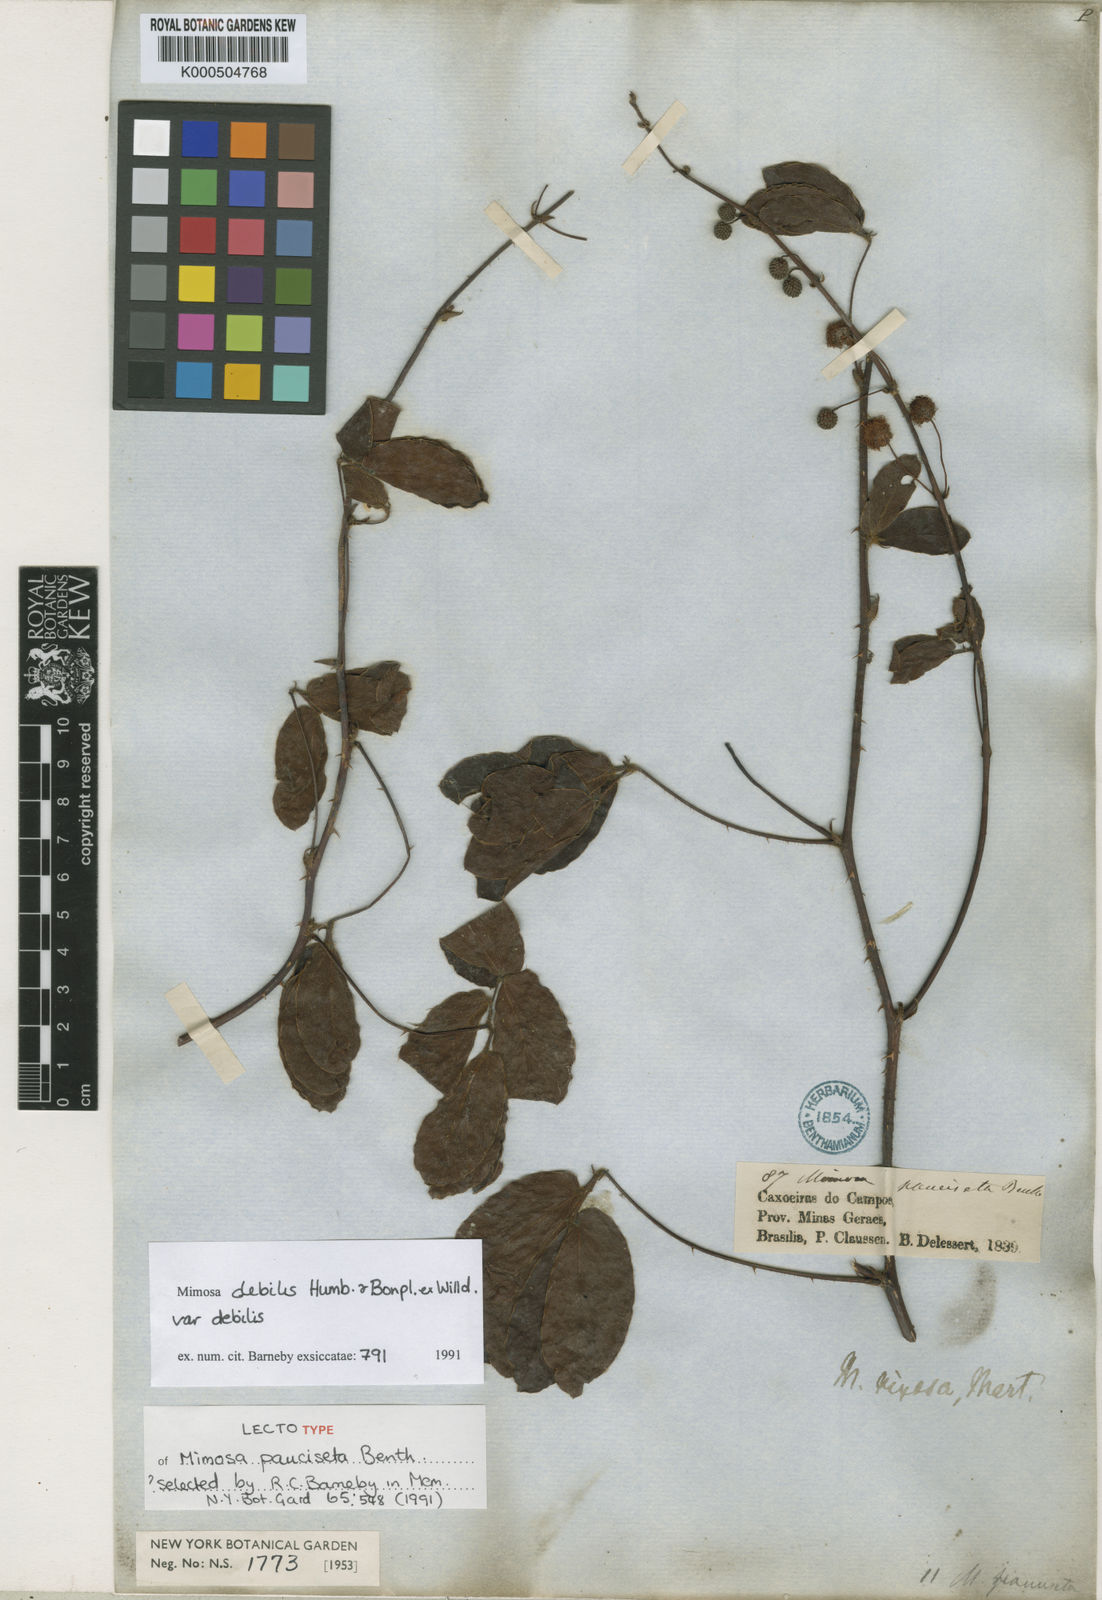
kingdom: Plantae
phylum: Tracheophyta
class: Magnoliopsida
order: Fabales
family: Fabaceae
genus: Mimosa
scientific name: Mimosa debilis
